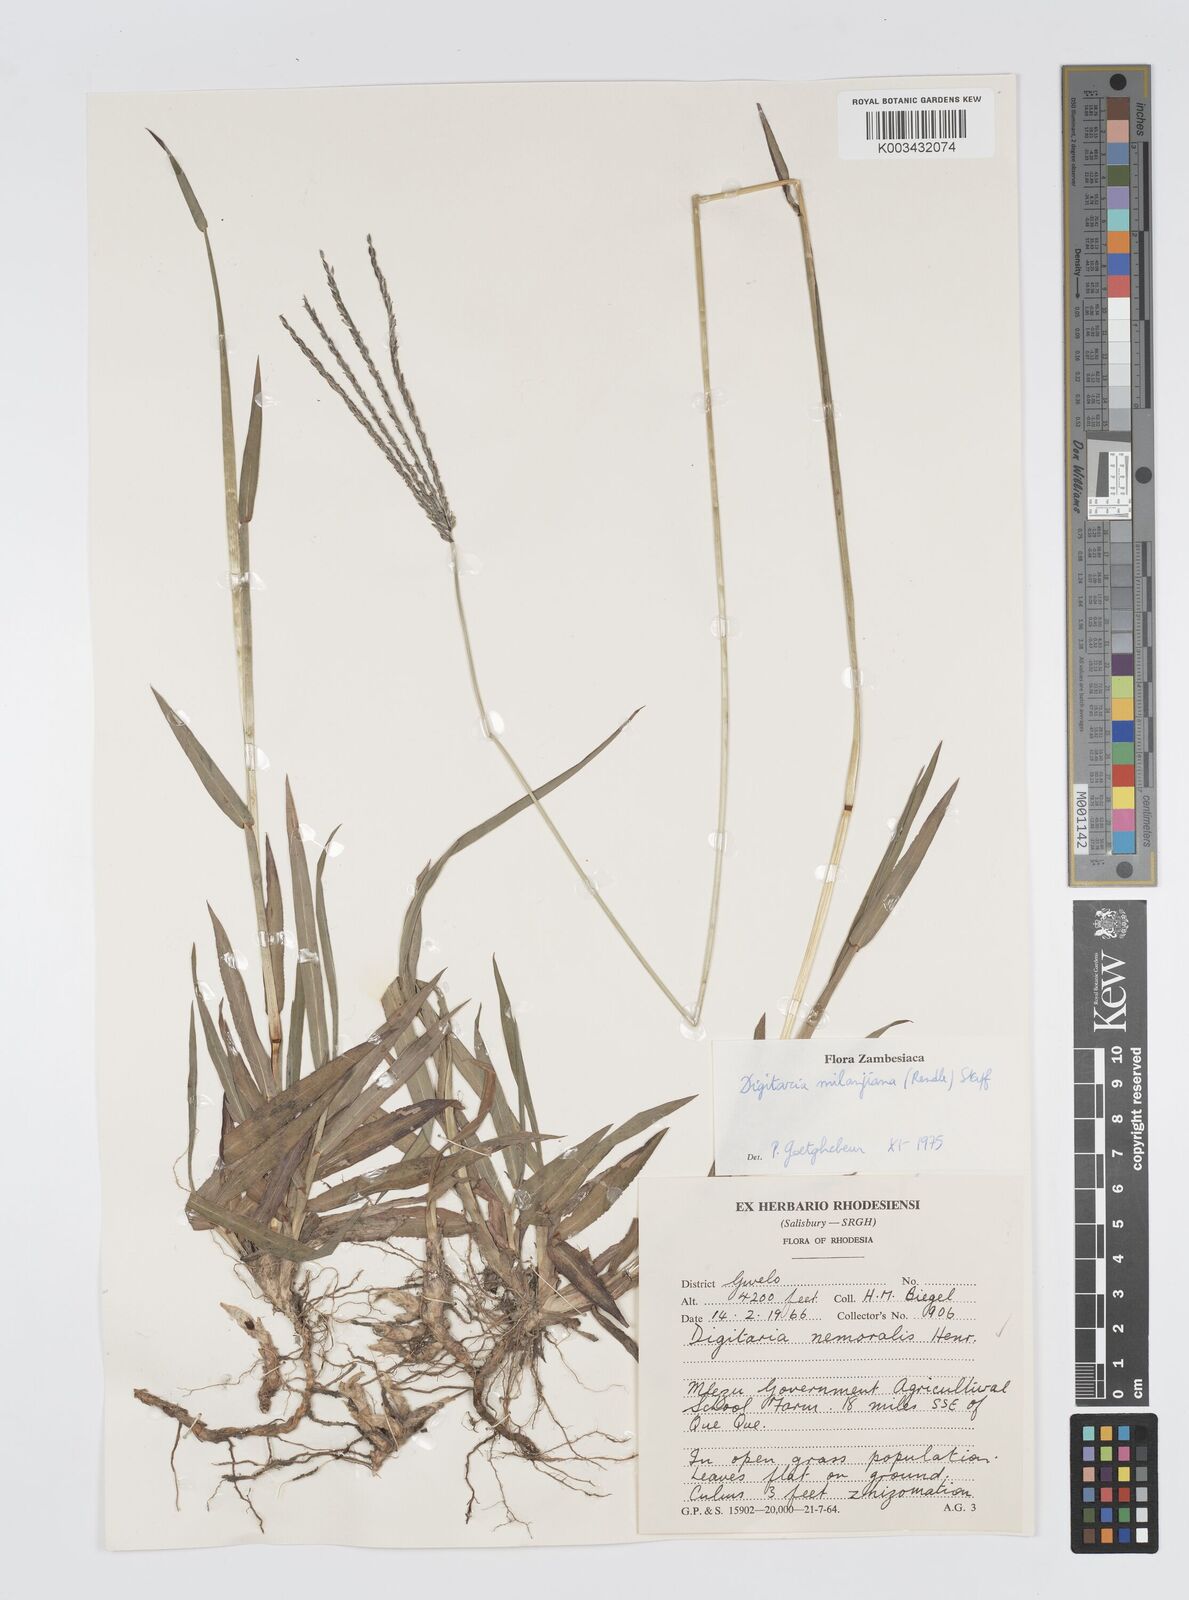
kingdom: Plantae
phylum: Tracheophyta
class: Liliopsida
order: Poales
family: Poaceae
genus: Digitaria
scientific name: Digitaria milanjiana
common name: Madagascar crabgrass
